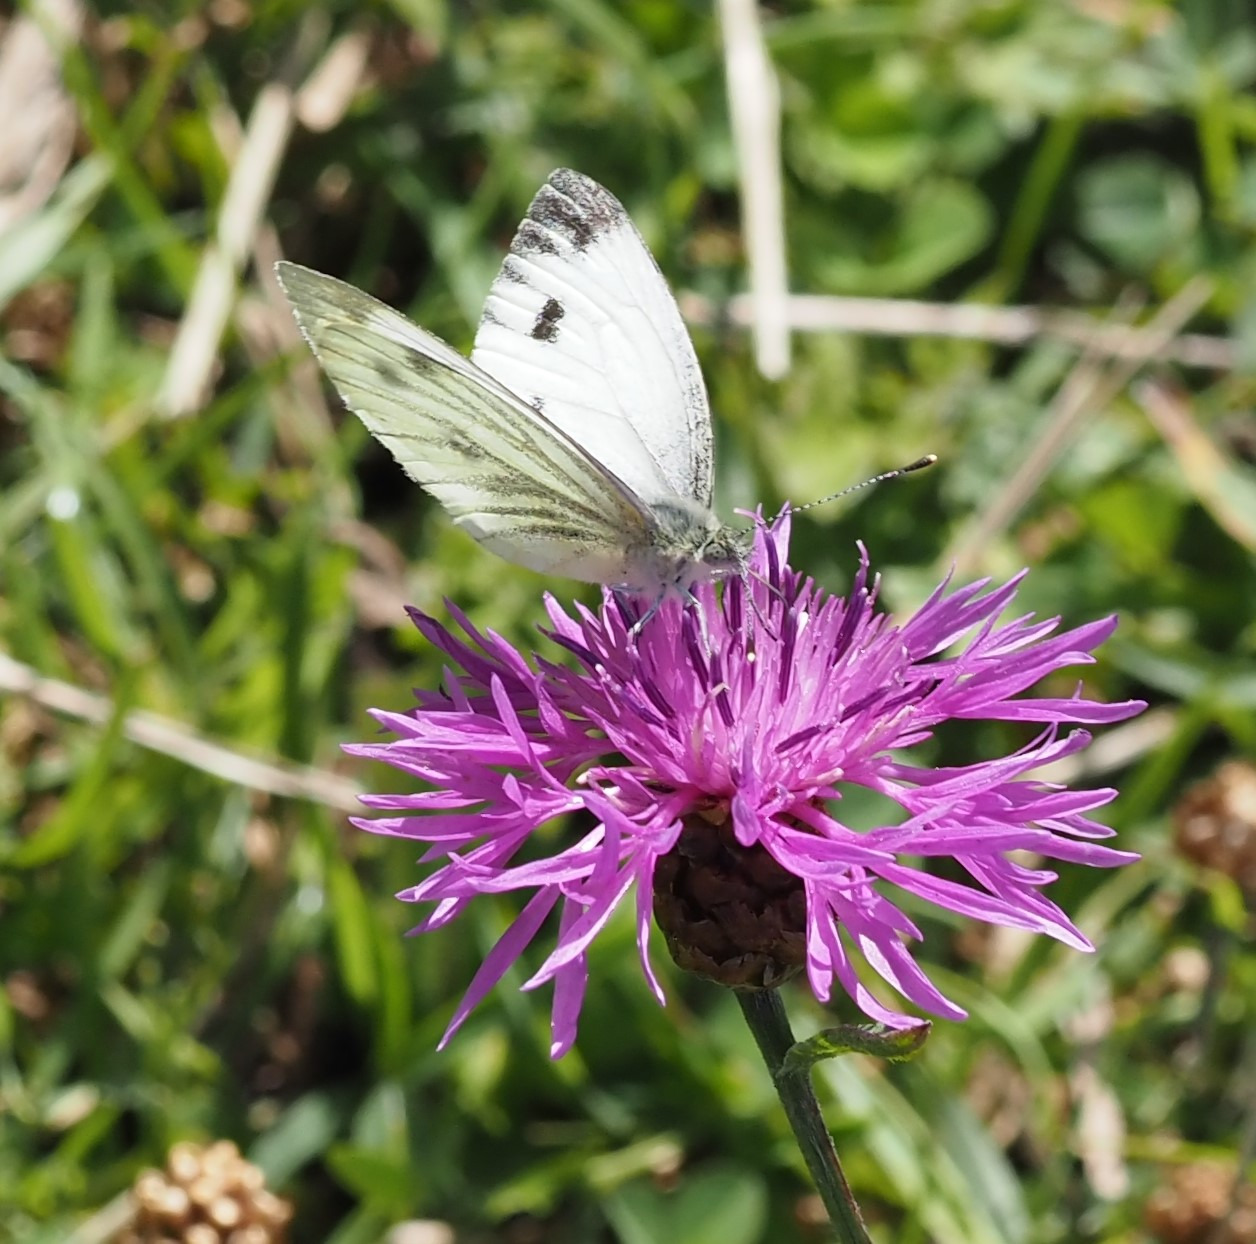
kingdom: Animalia
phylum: Arthropoda
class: Insecta
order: Lepidoptera
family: Pieridae
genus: Pieris
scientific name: Pieris napi
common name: Grønåret kålsommerfugl
